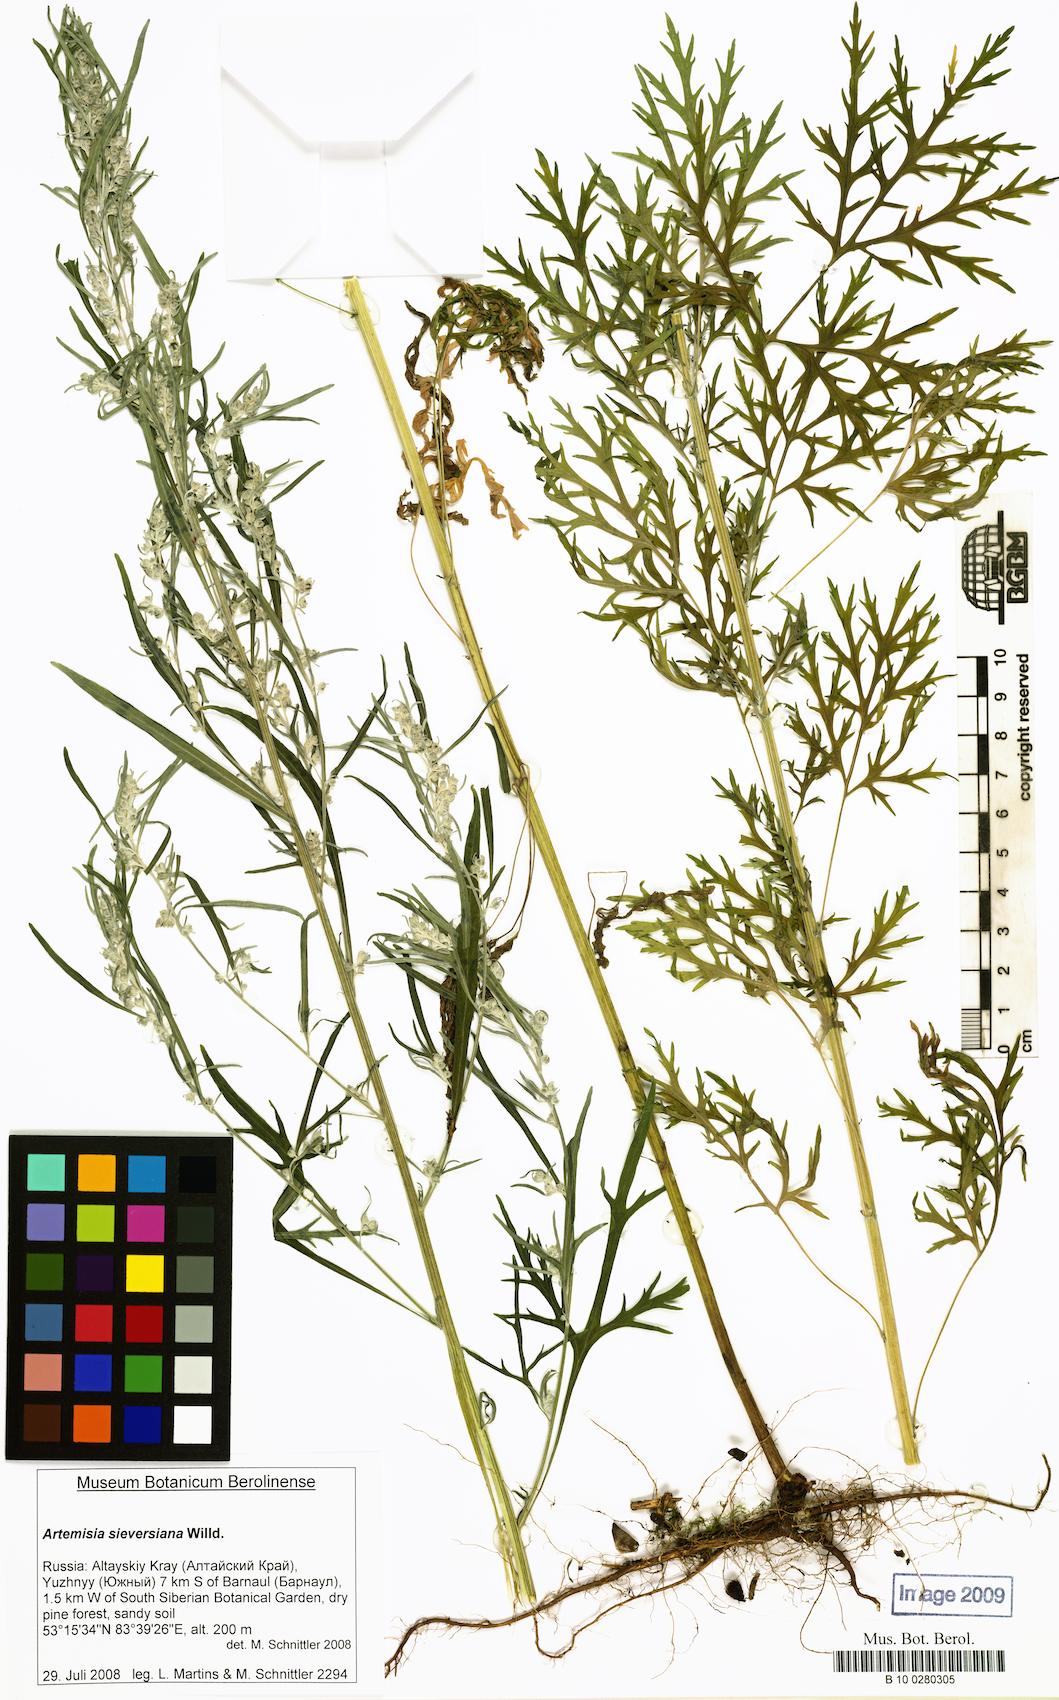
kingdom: Plantae
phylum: Tracheophyta
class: Magnoliopsida
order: Asterales
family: Asteraceae
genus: Artemisia
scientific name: Artemisia sieversiana
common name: Sieversian wormwood
